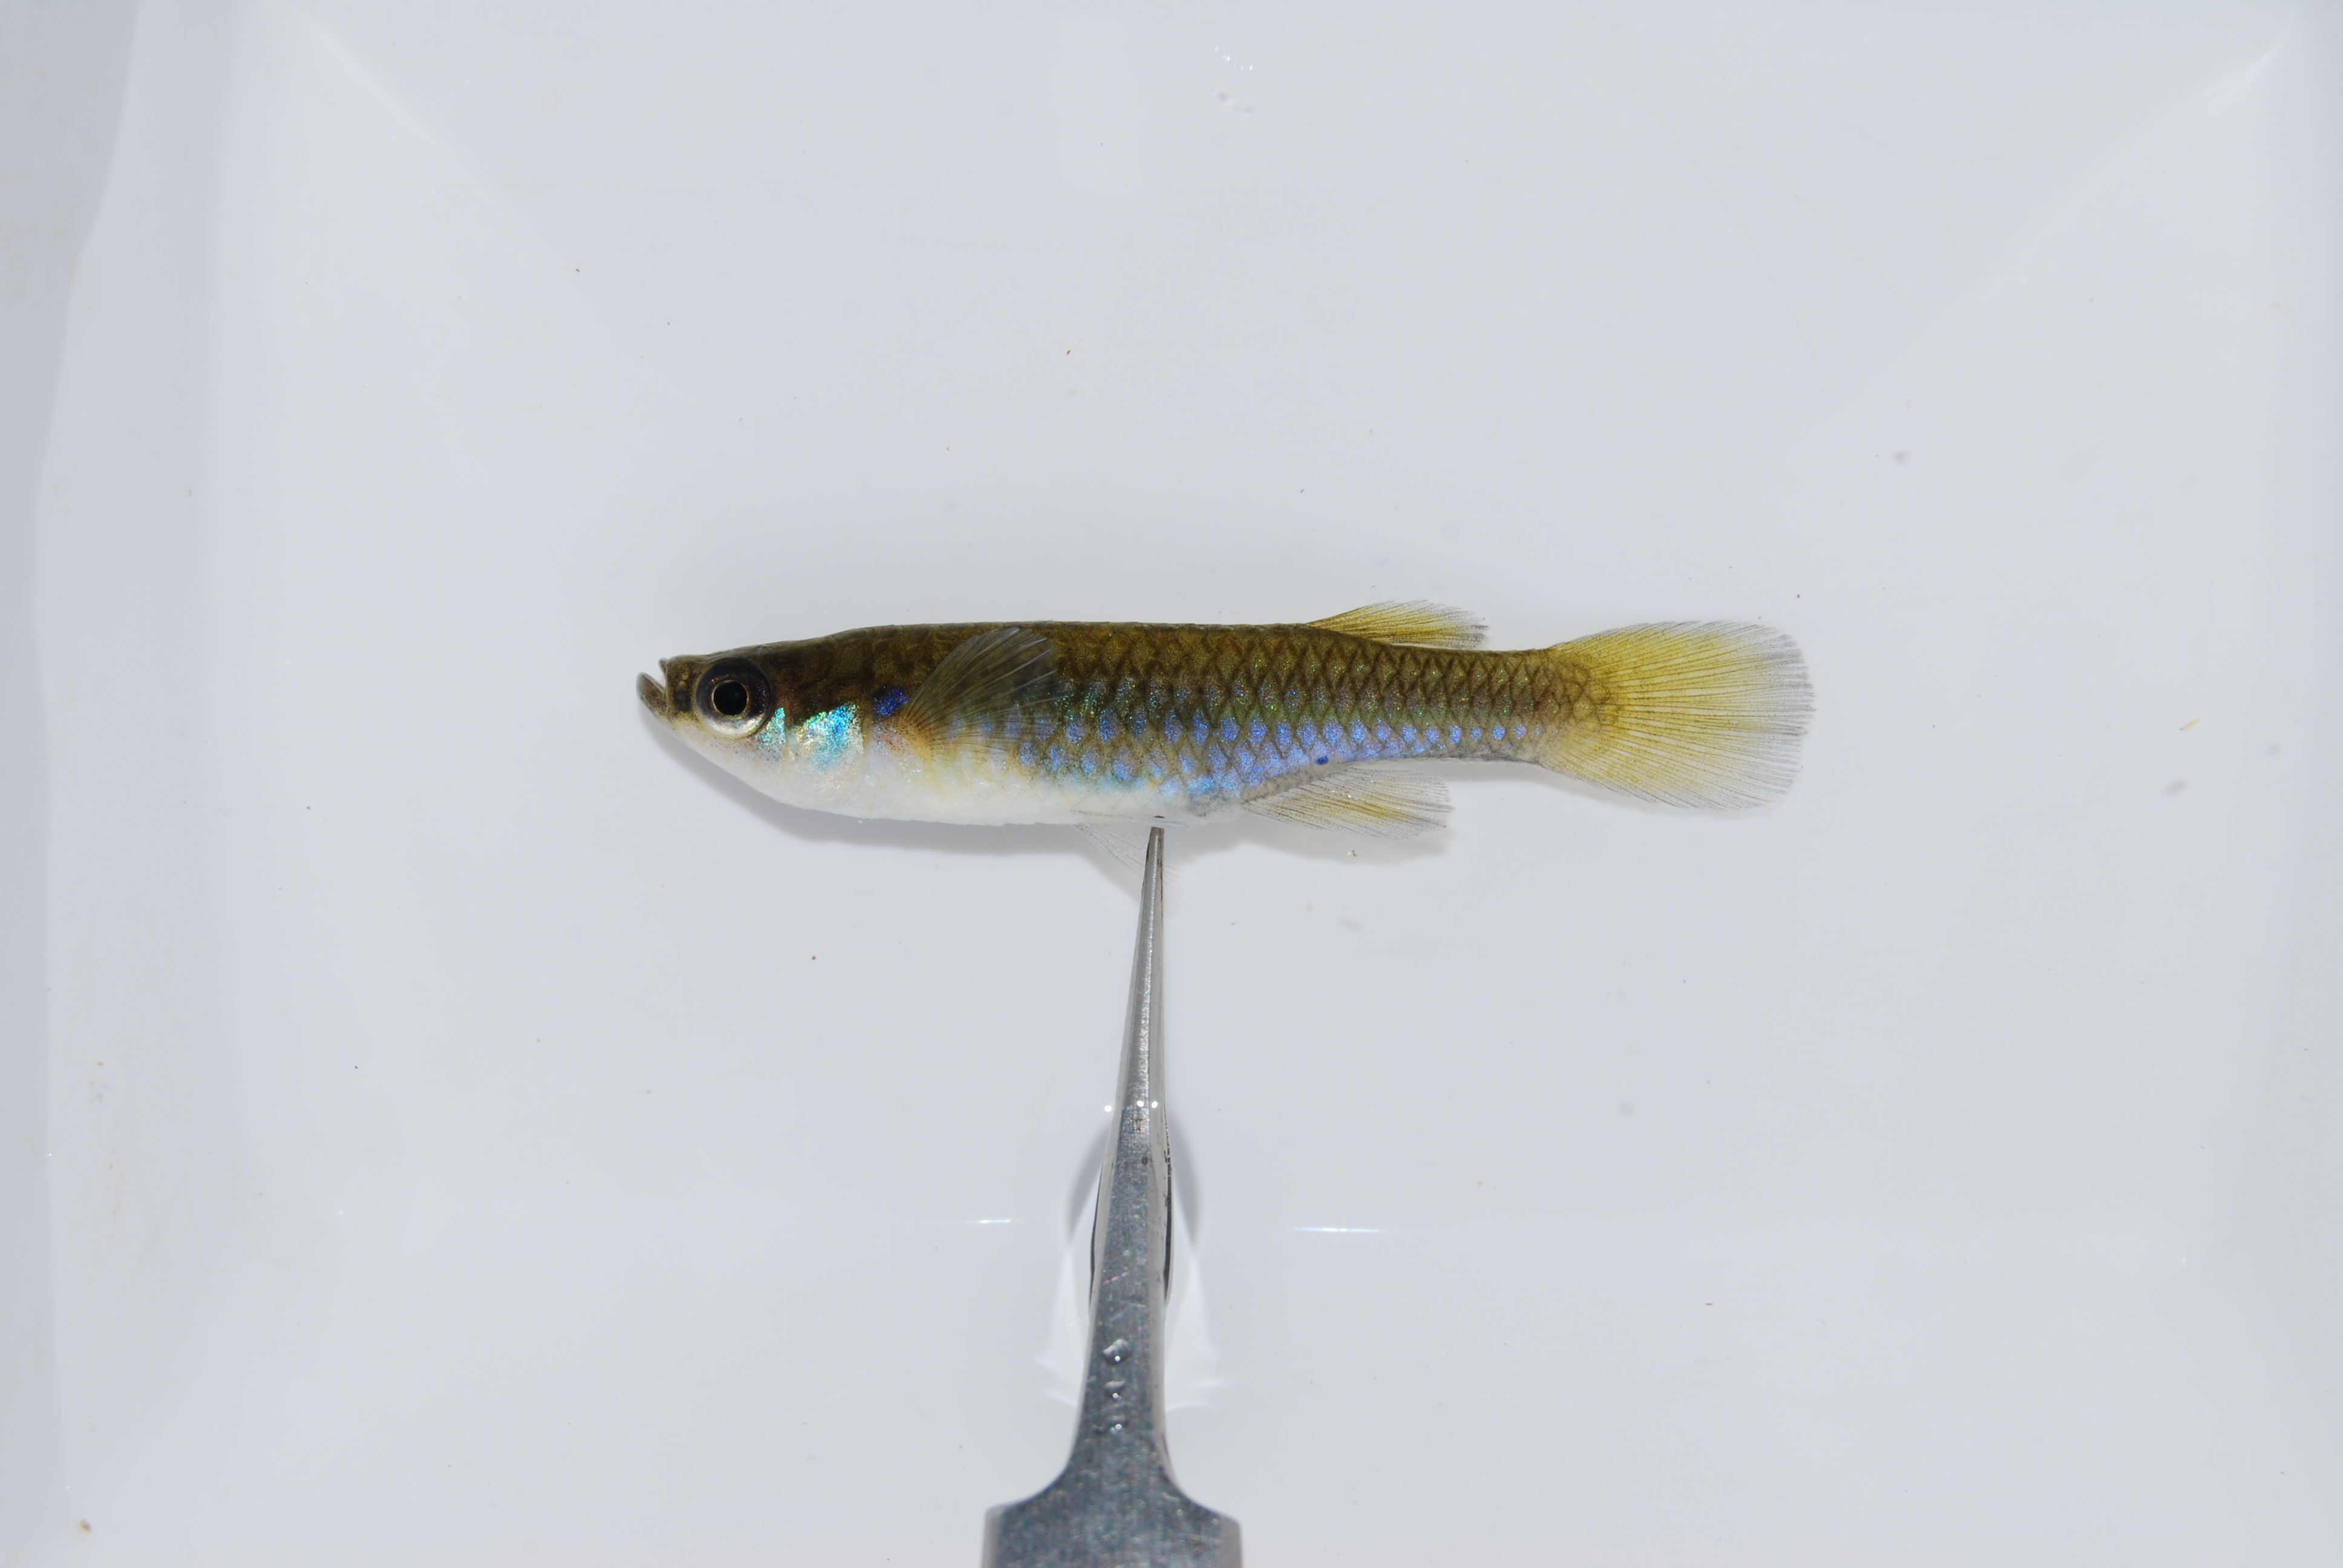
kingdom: Animalia
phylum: Chordata
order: Cyprinodontiformes
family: Poeciliidae
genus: Micropanchax
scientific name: Micropanchax hutereaui
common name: Meshscaled topminnow
